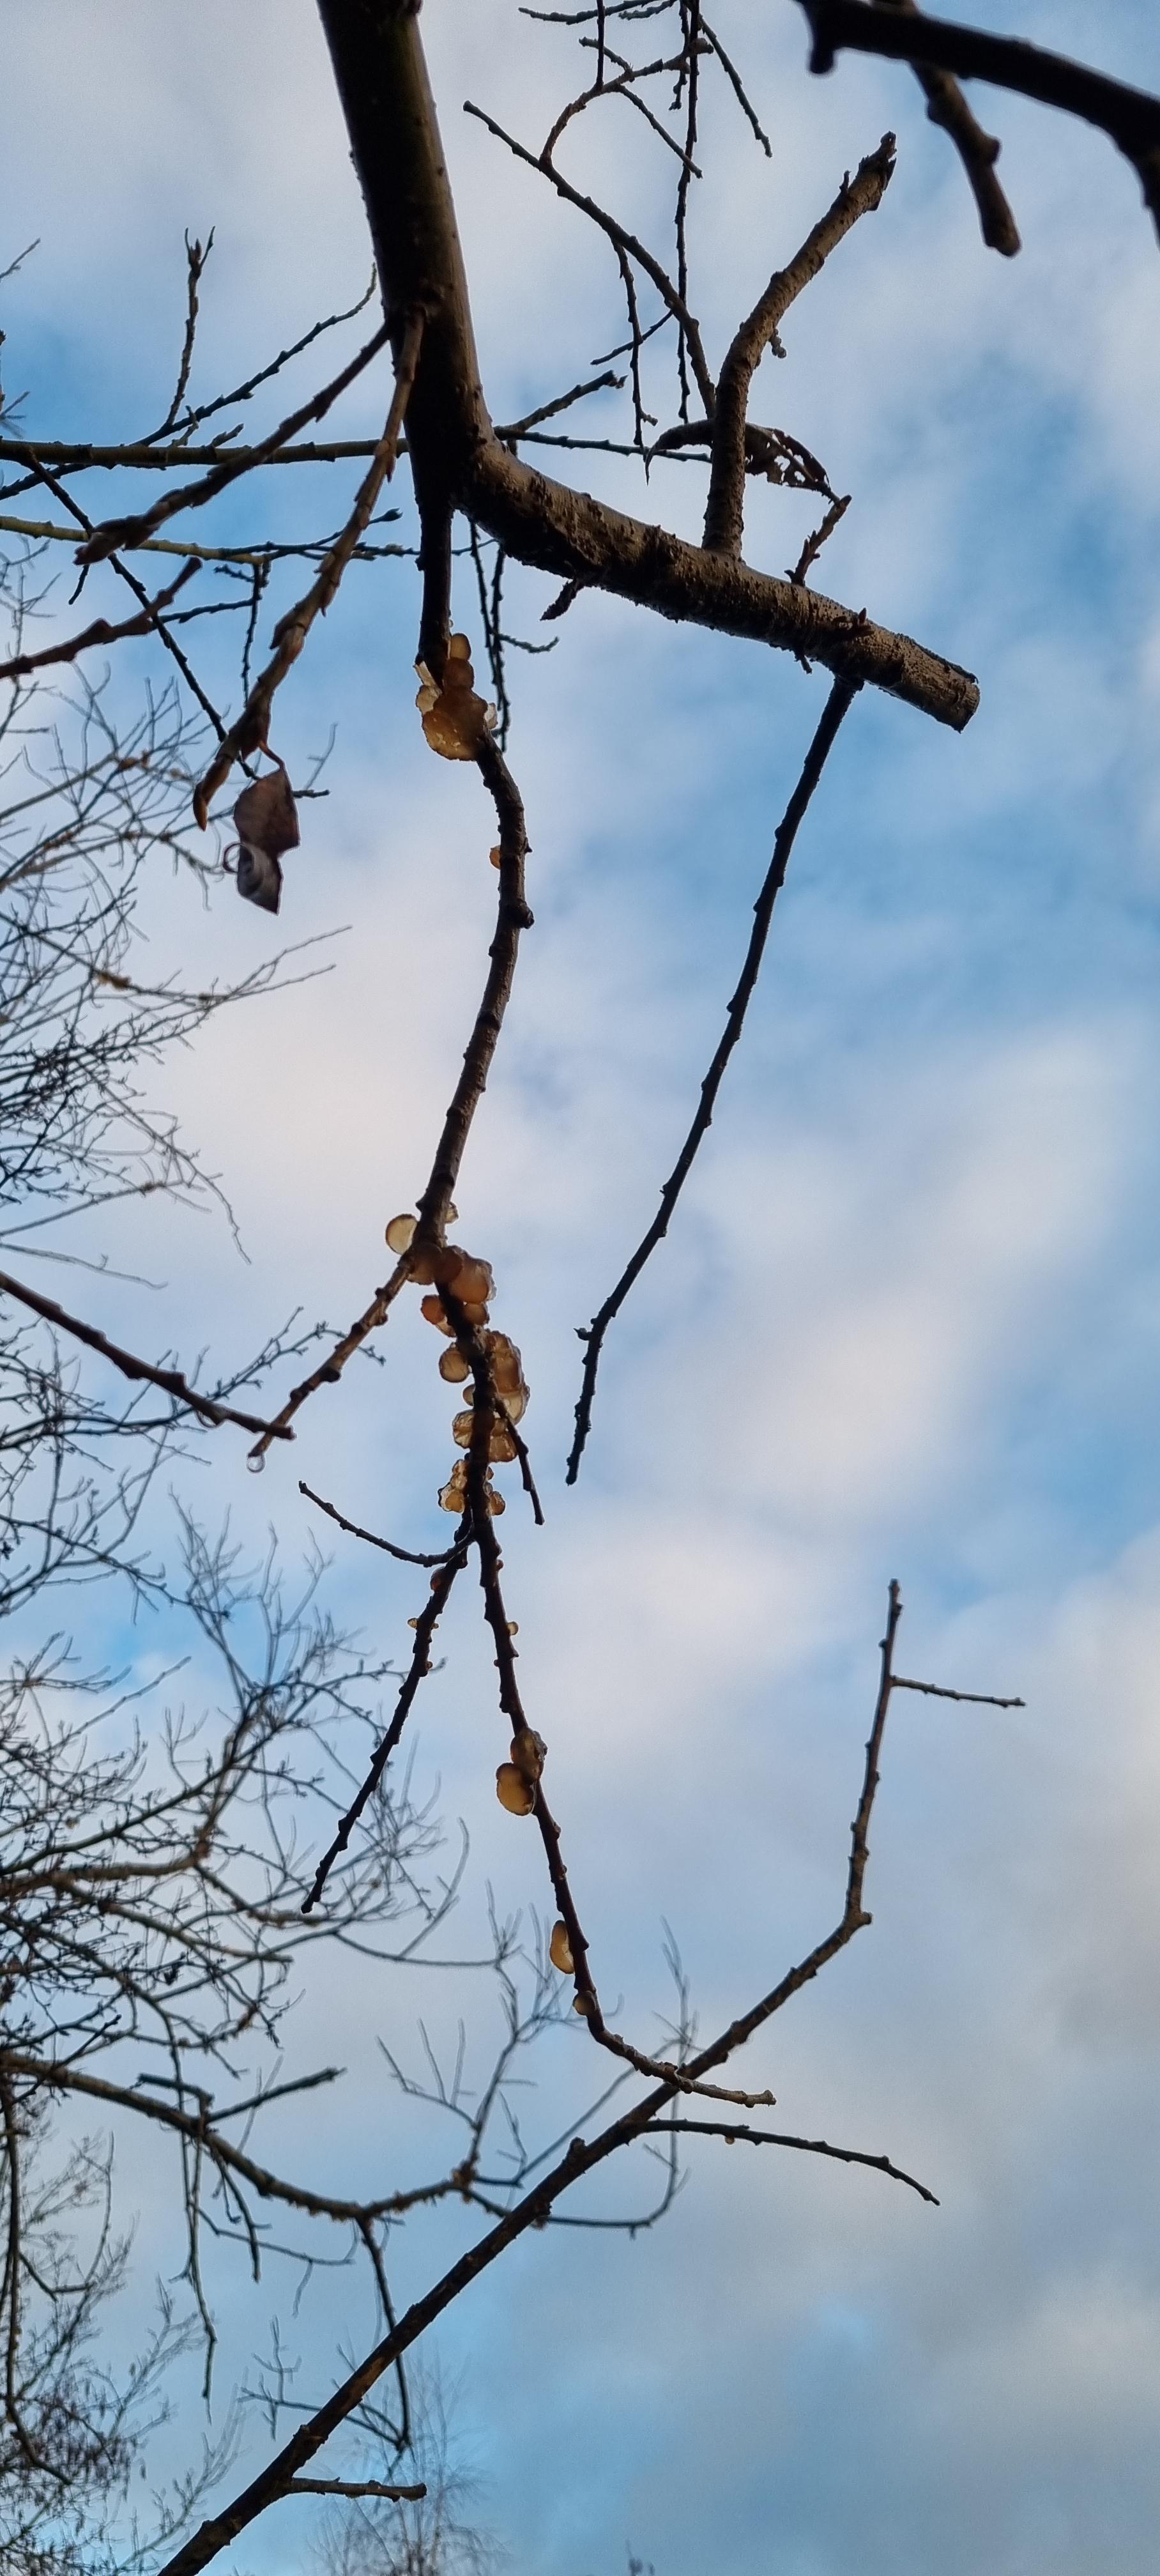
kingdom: Fungi
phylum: Basidiomycota
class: Agaricomycetes
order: Auriculariales
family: Auriculariaceae
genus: Exidia
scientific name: Exidia recisa
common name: pile-bævretop
